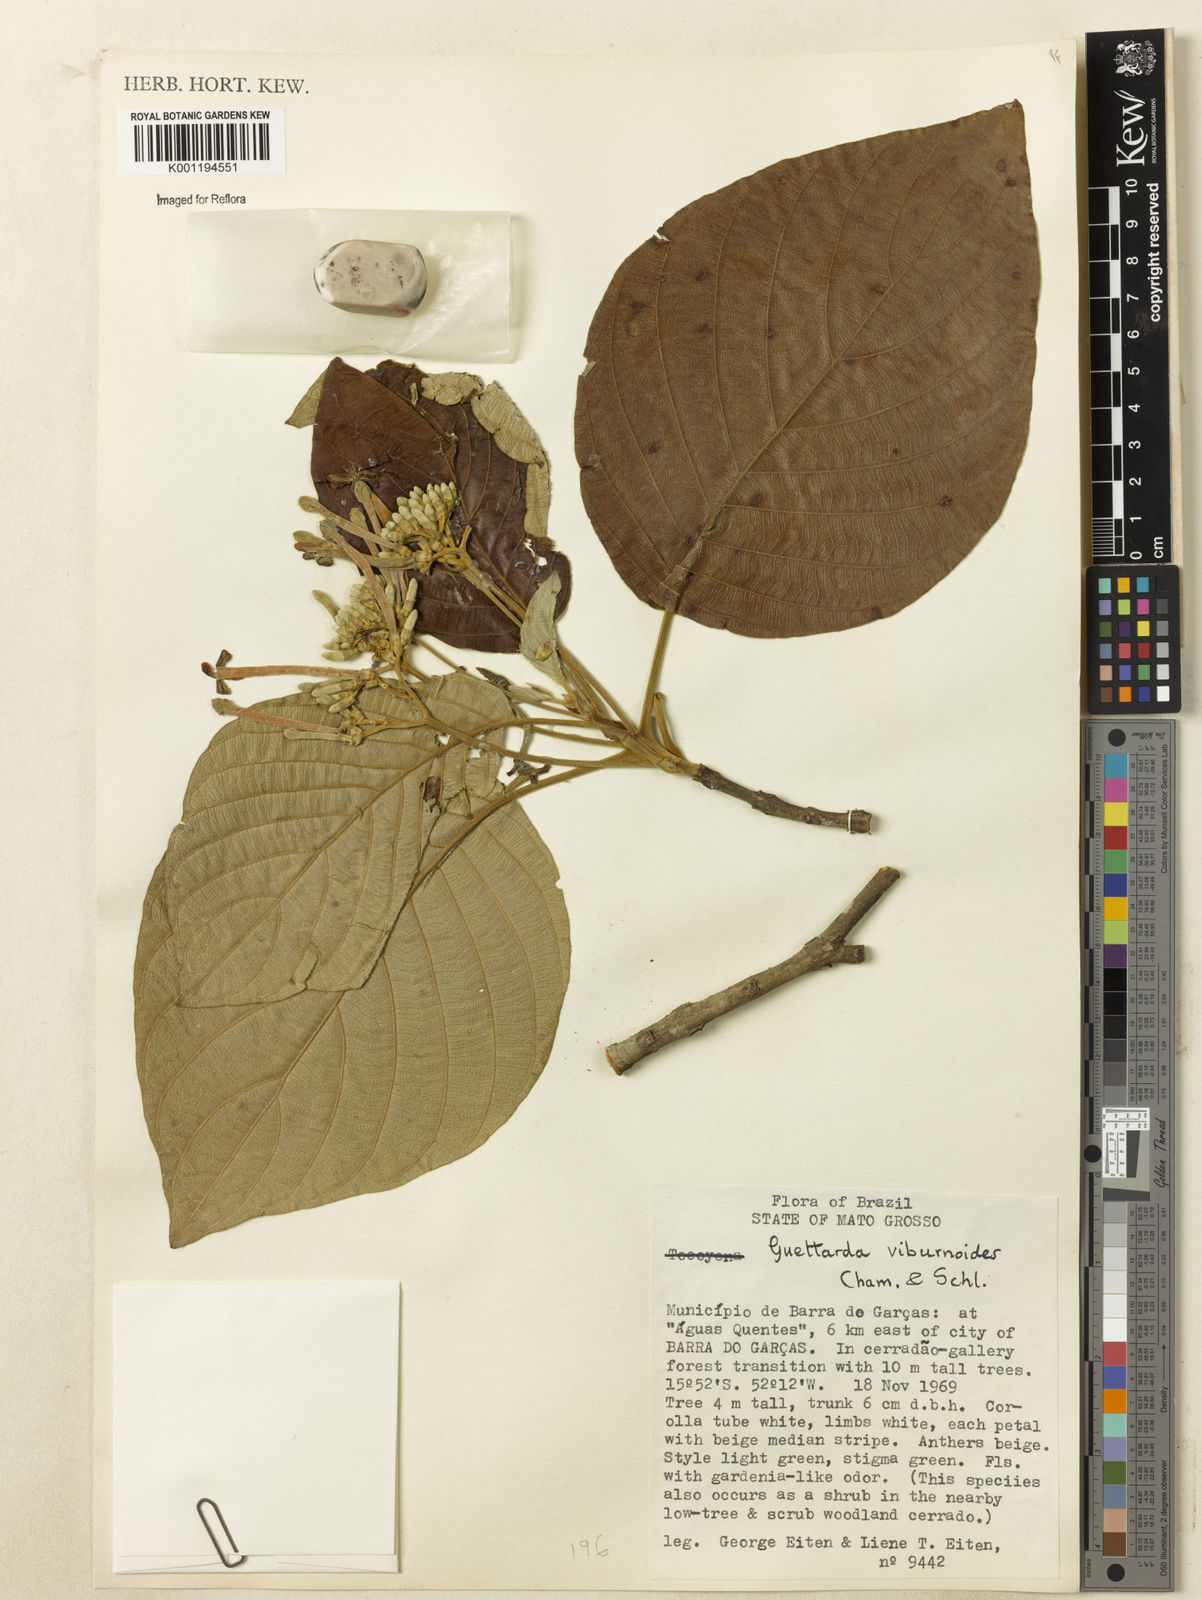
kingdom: Plantae
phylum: Tracheophyta
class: Magnoliopsida
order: Gentianales
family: Rubiaceae
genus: Guettarda
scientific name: Guettarda viburnoides
